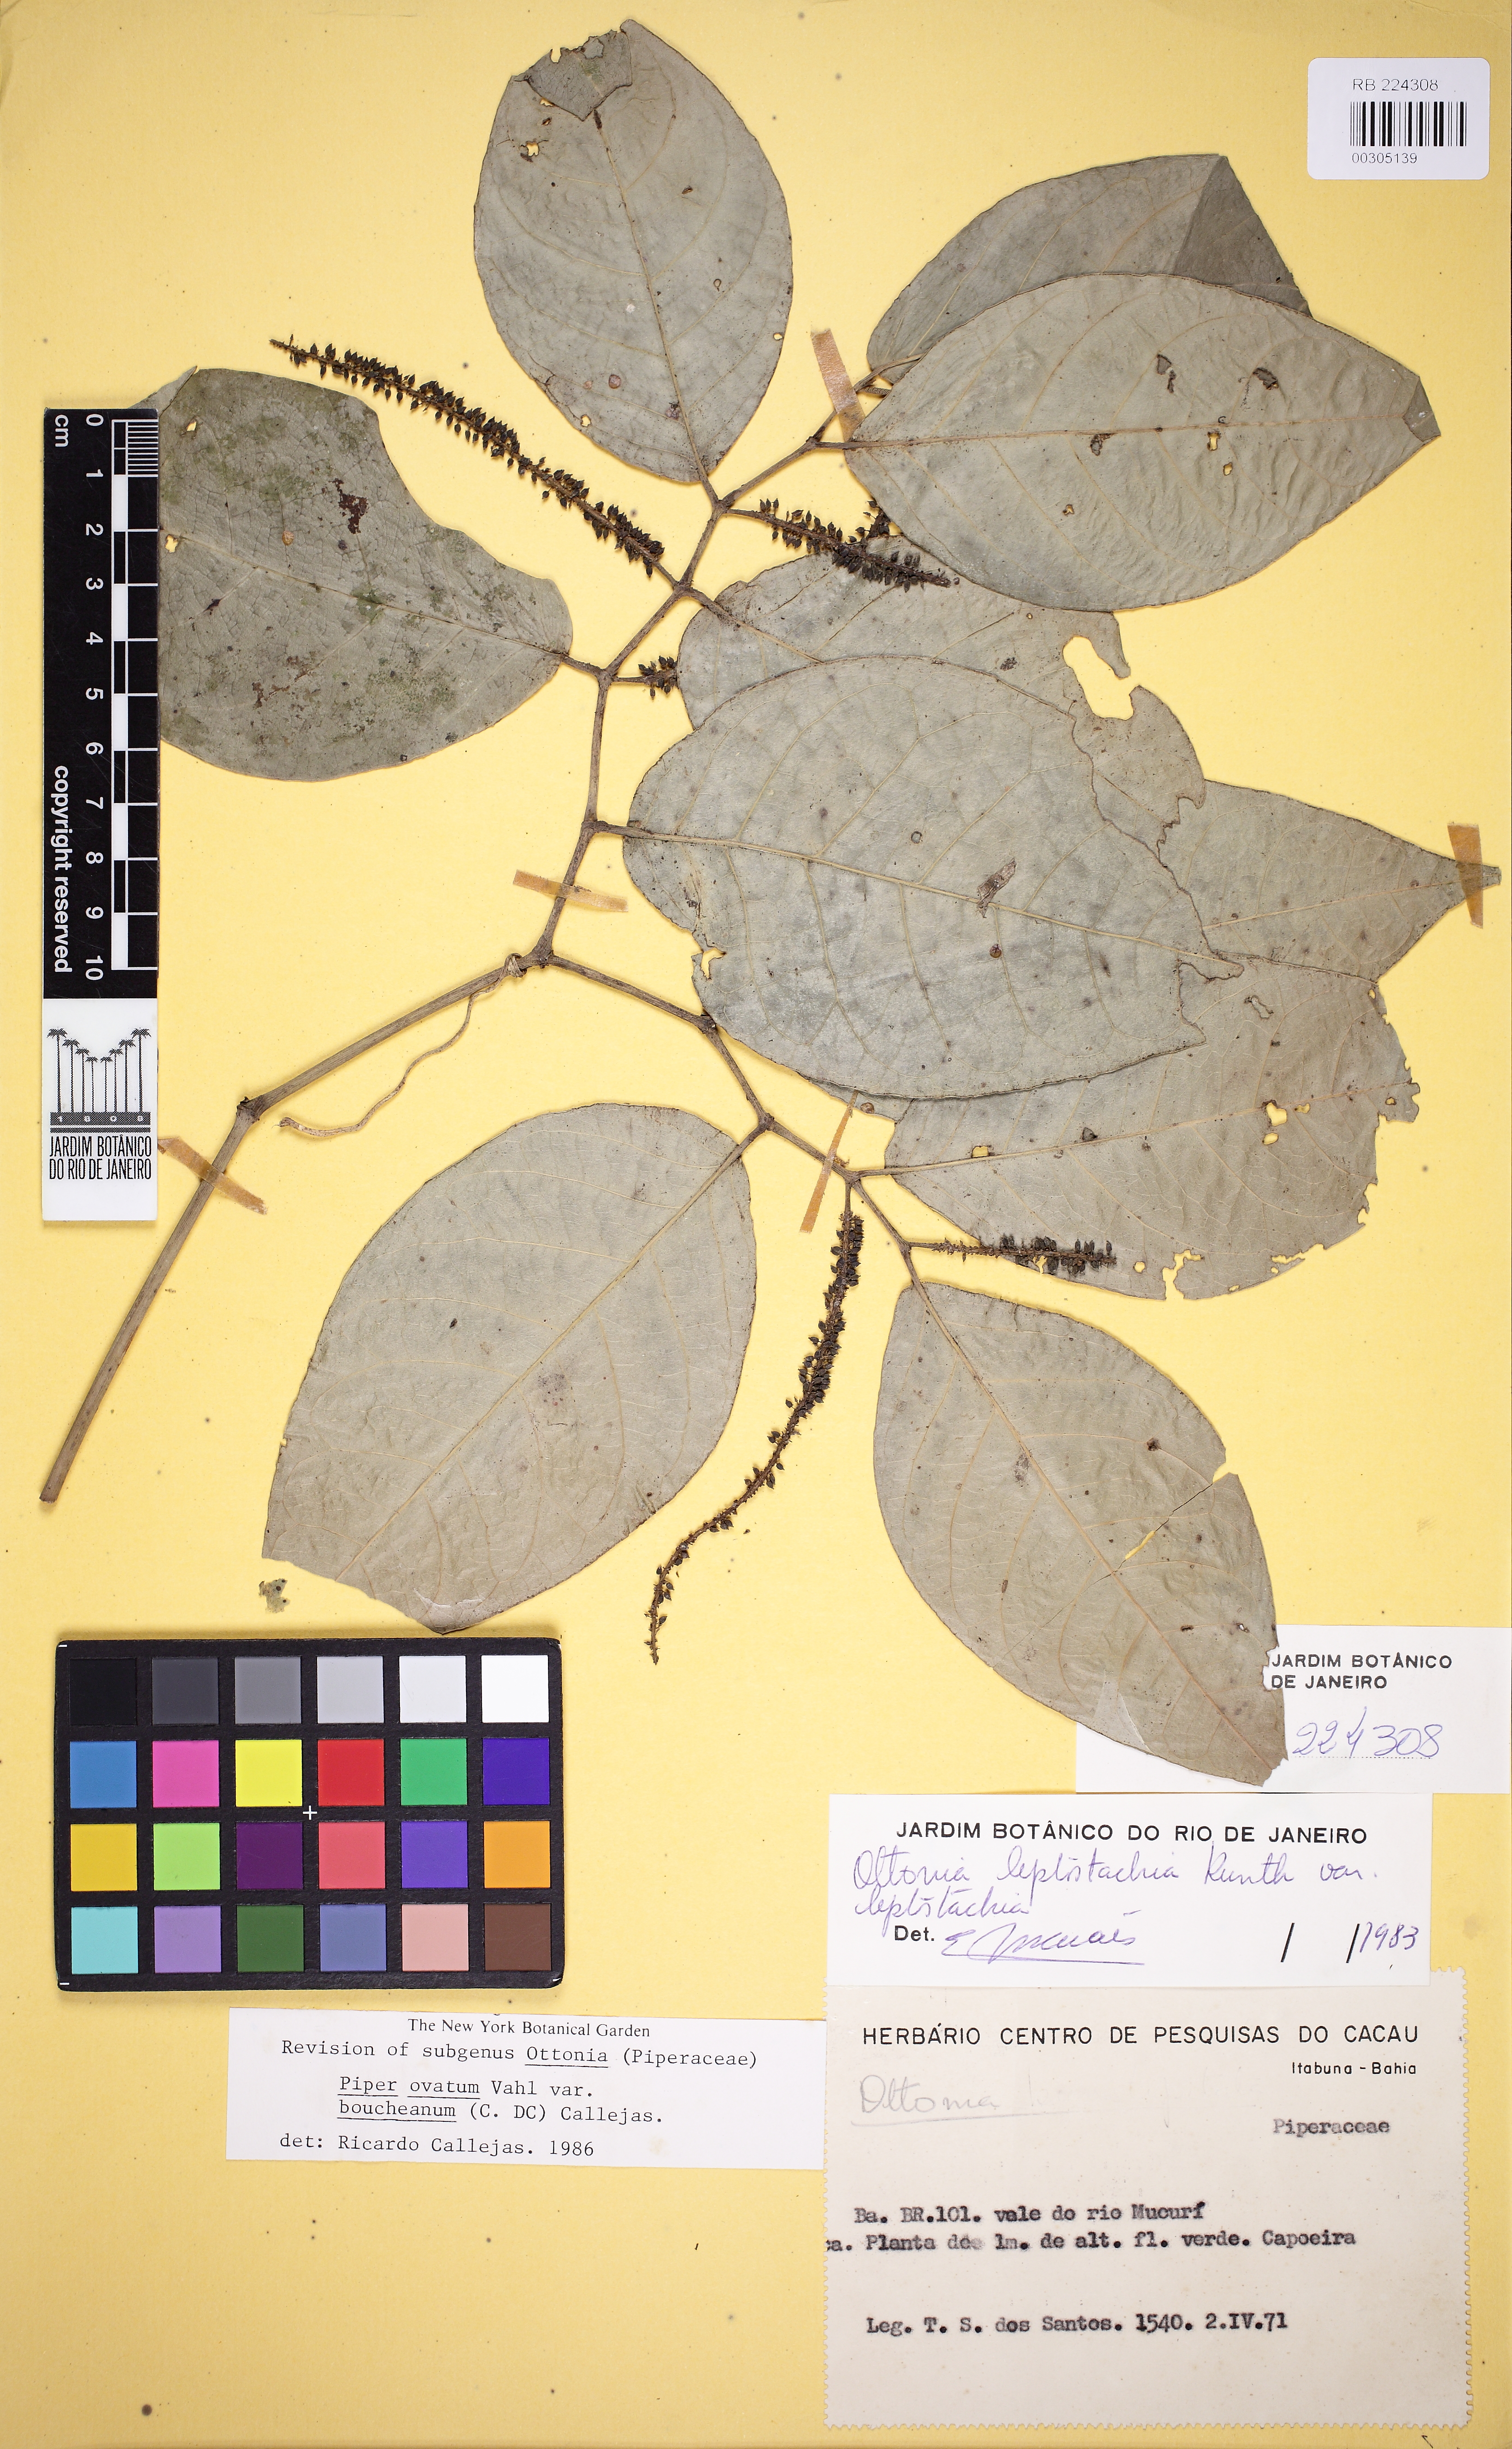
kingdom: Plantae
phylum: Tracheophyta
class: Magnoliopsida
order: Piperales
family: Piperaceae
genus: Piper
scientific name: Piper ovatum
